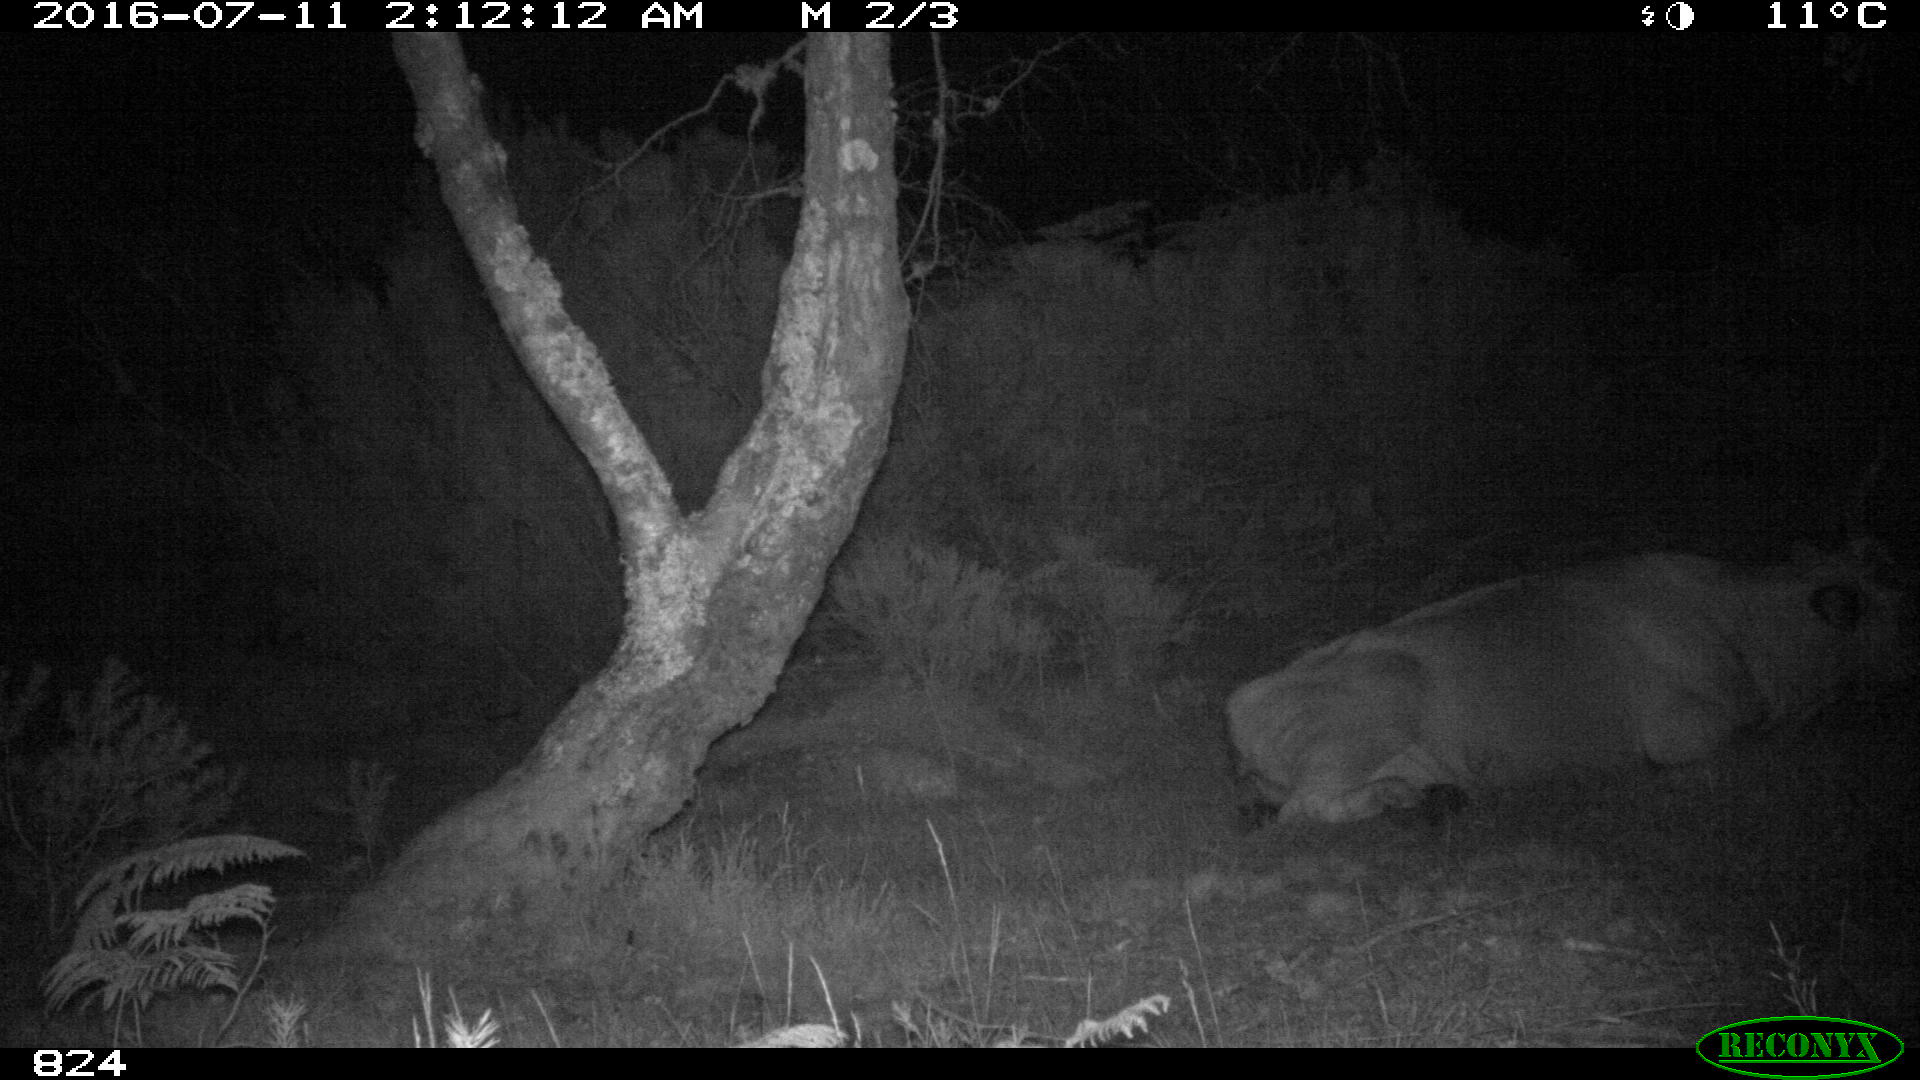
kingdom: Animalia
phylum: Chordata
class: Mammalia
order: Artiodactyla
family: Bovidae
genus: Bos
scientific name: Bos taurus
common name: Domesticated cattle
